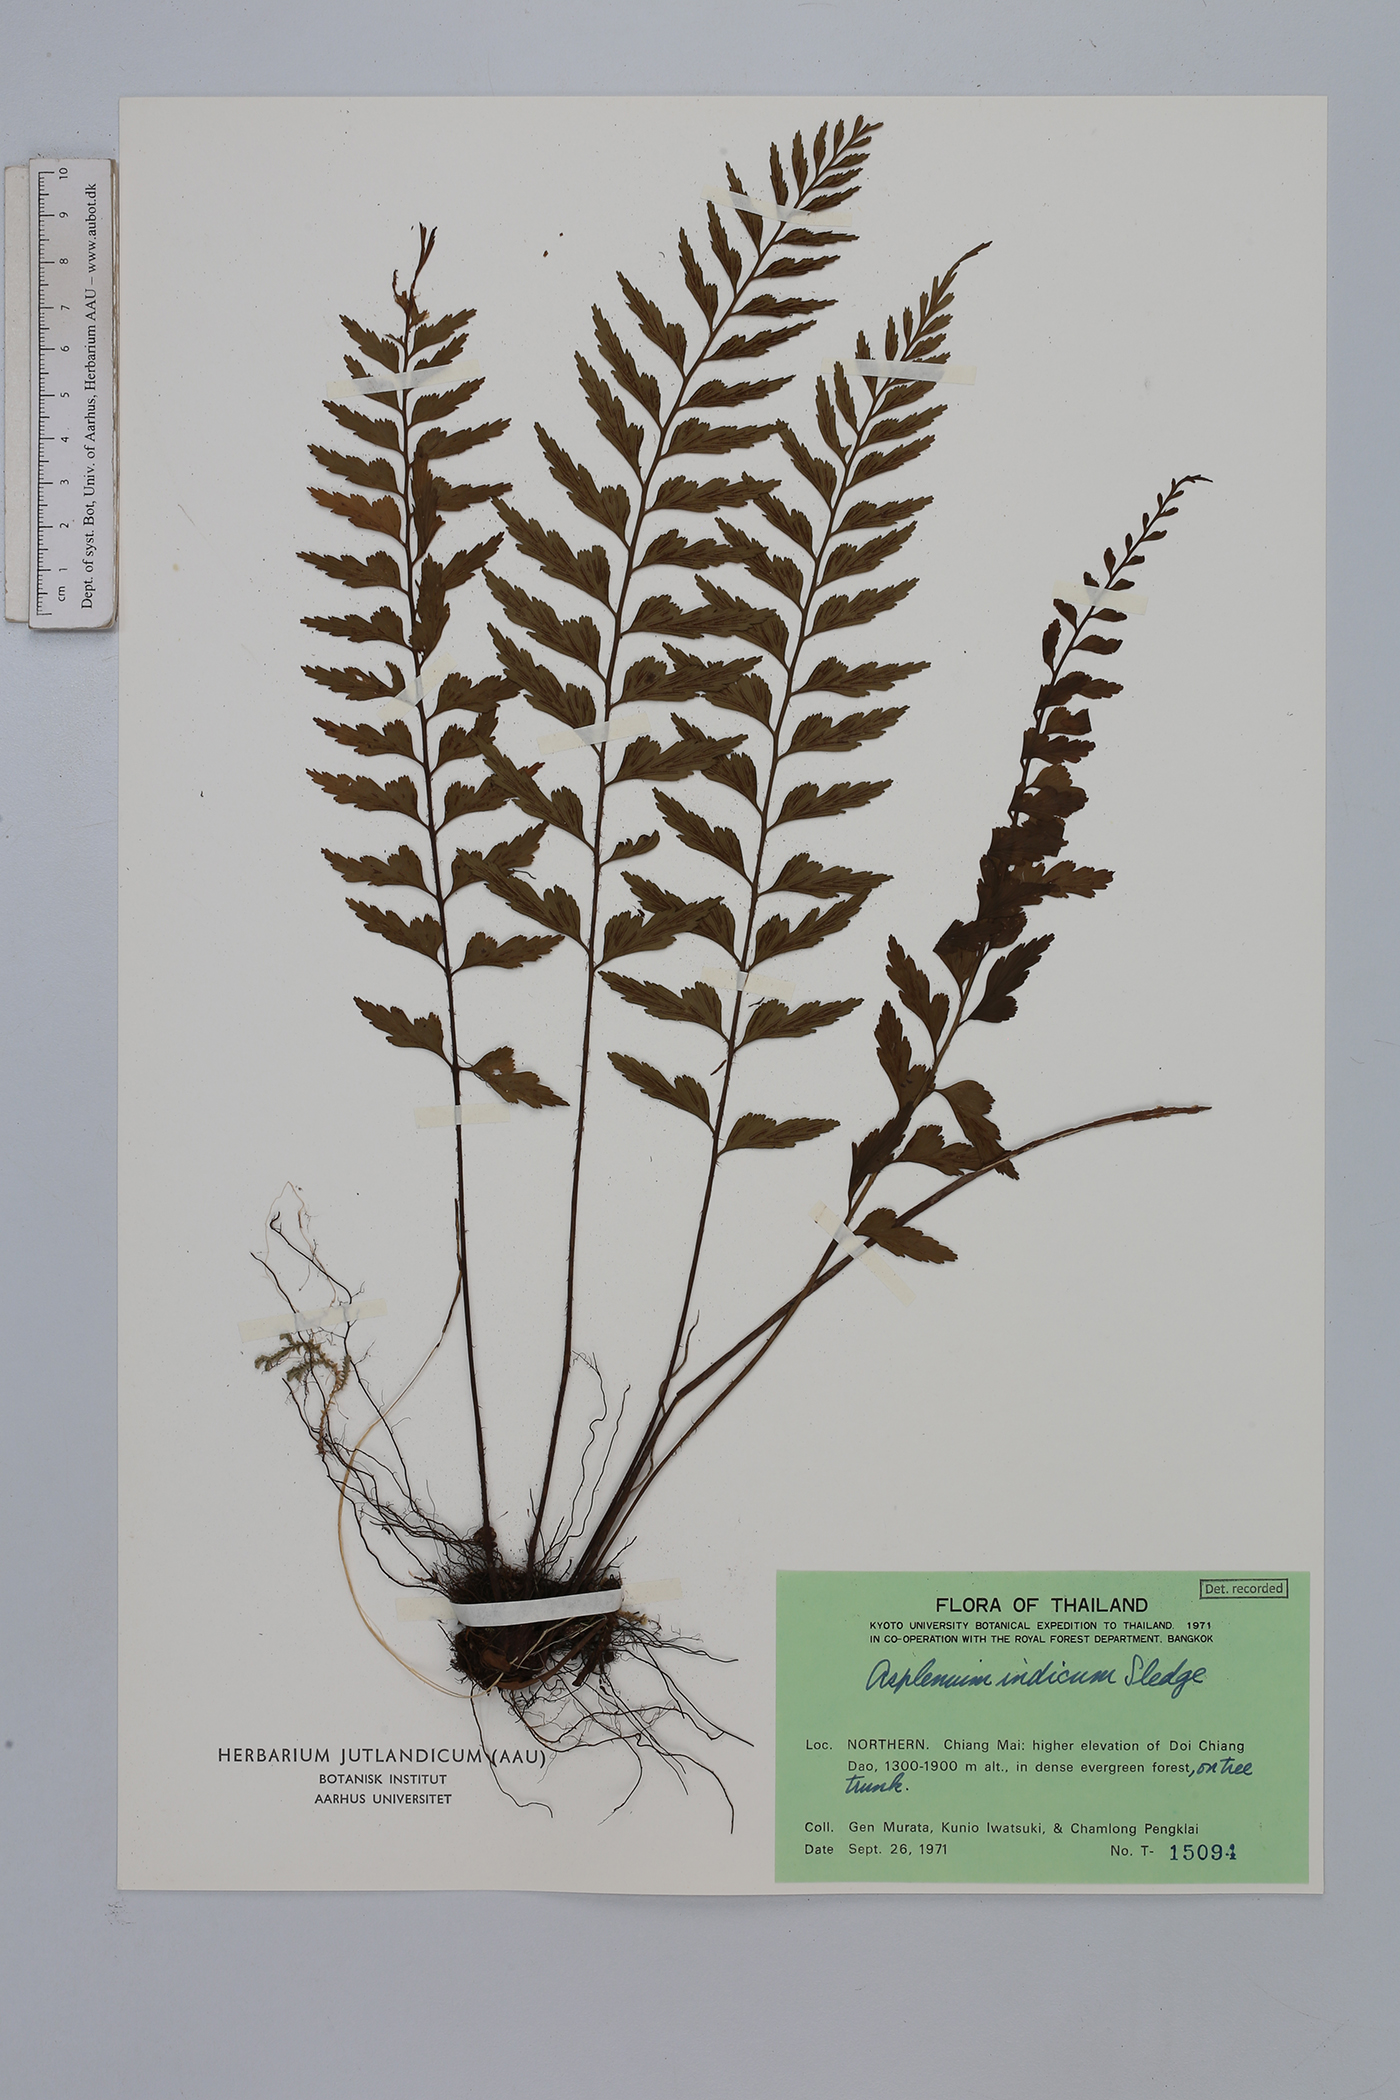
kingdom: Plantae
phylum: Tracheophyta
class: Polypodiopsida
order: Polypodiales
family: Aspleniaceae
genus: Asplenium
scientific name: Asplenium yoshinagae
